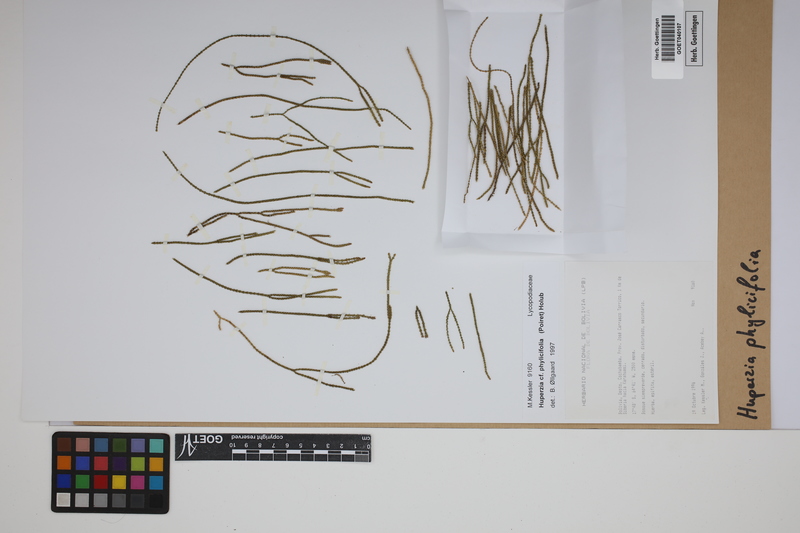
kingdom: Plantae
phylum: Tracheophyta
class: Lycopodiopsida
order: Lycopodiales
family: Lycopodiaceae
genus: Phlegmariurus
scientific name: Phlegmariurus phylicifolius
